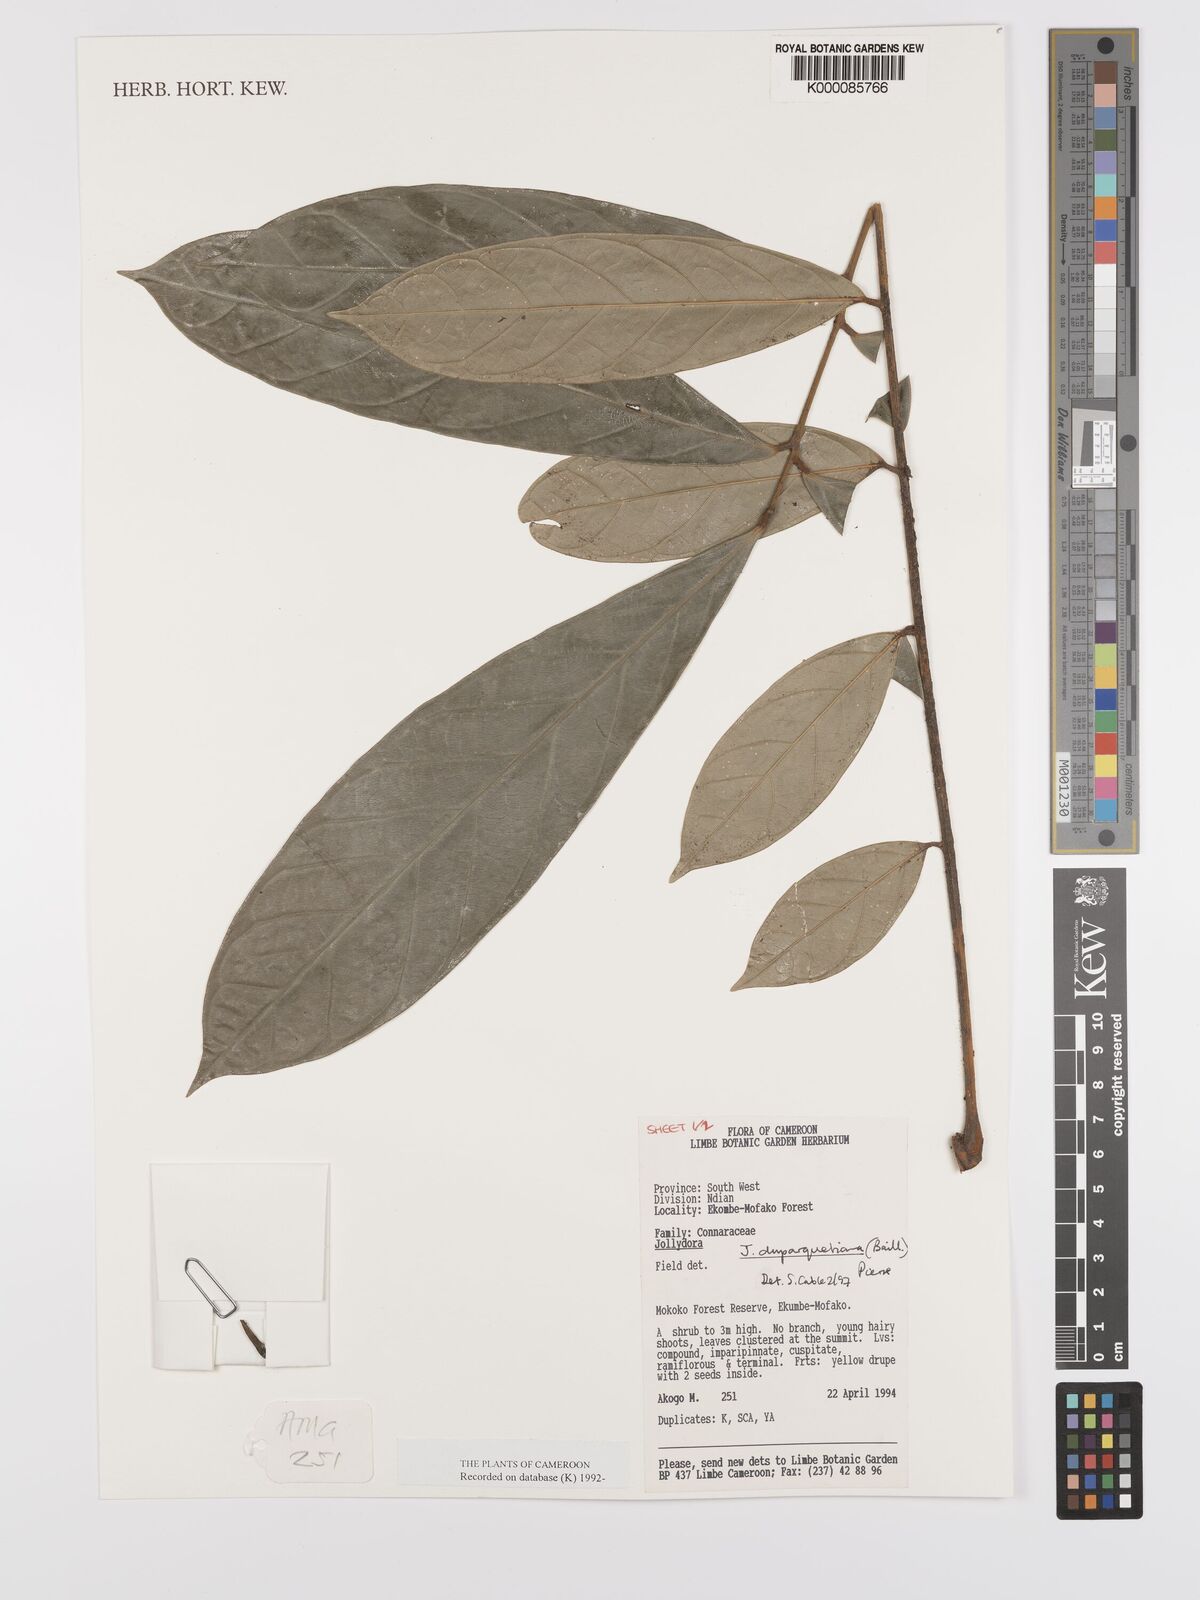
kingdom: Plantae
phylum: Tracheophyta
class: Magnoliopsida
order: Oxalidales
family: Connaraceae
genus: Jollydora
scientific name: Jollydora duparquetiana
